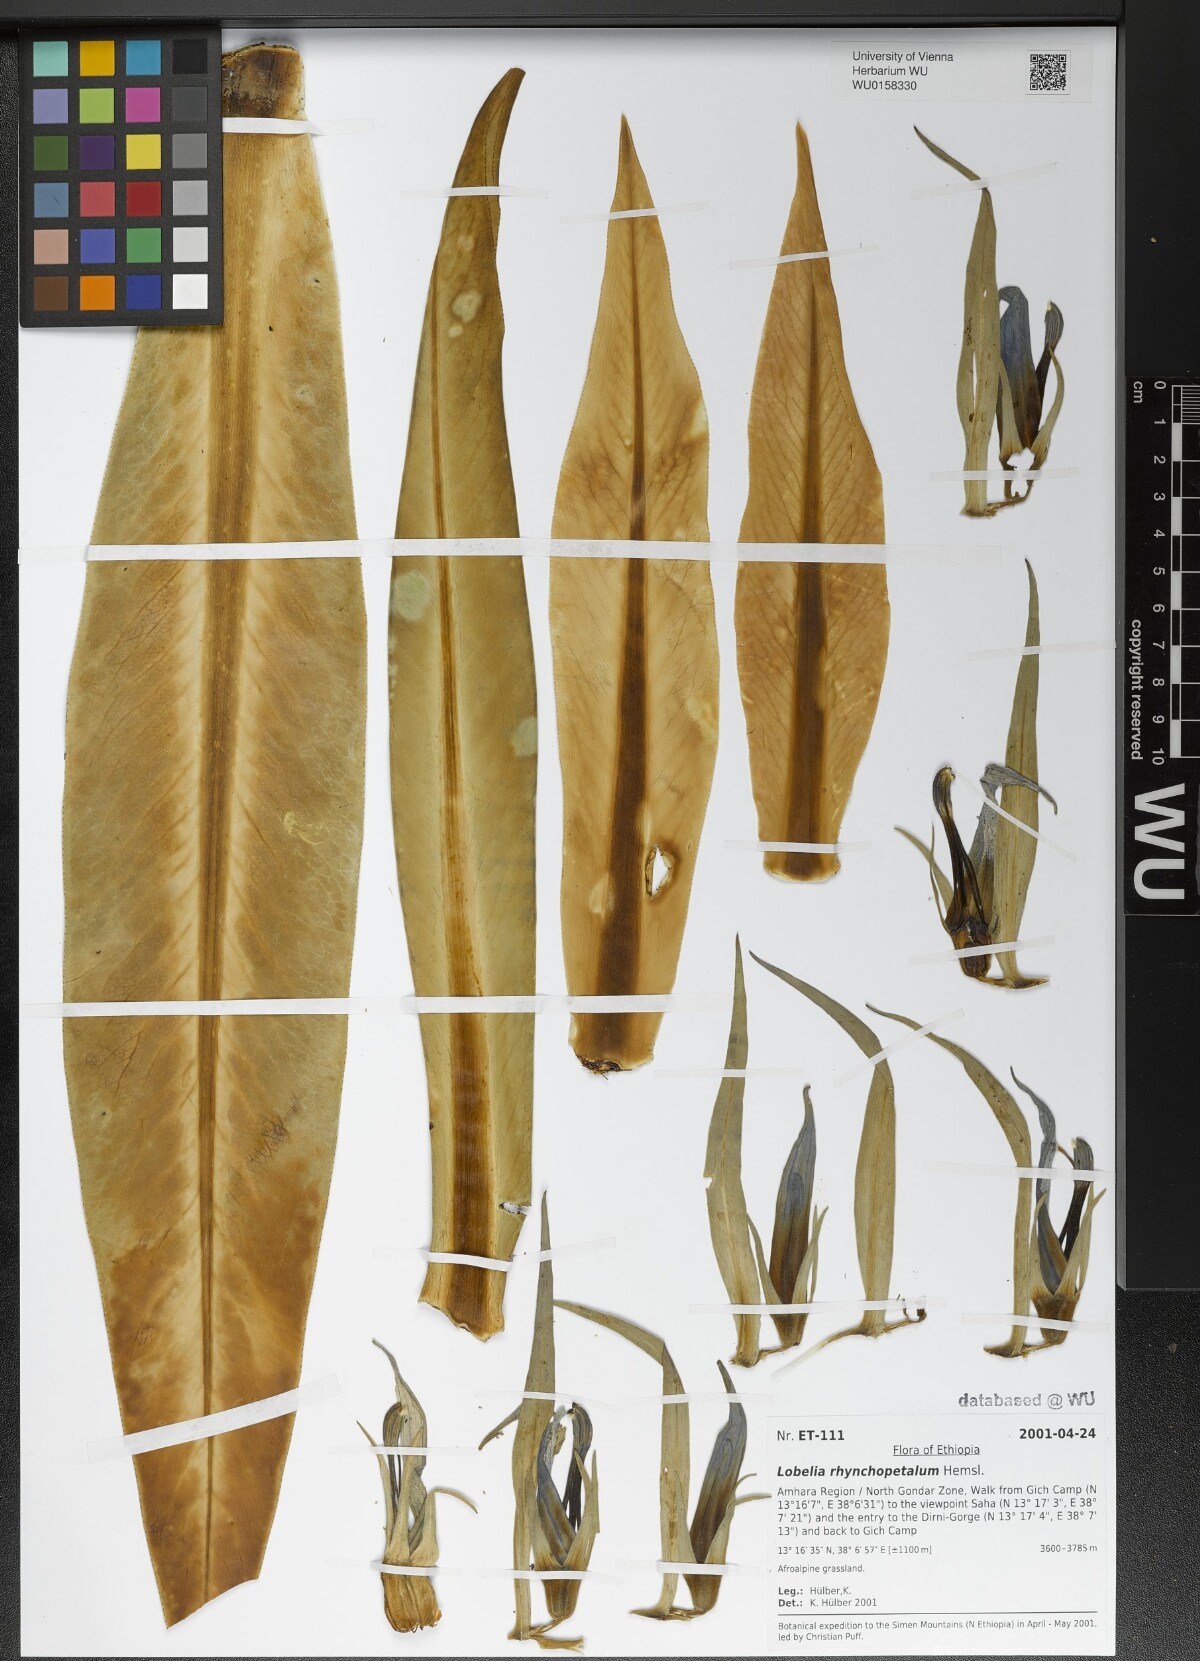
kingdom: Plantae
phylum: Tracheophyta
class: Magnoliopsida
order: Asterales
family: Campanulaceae
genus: Lobelia
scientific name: Lobelia rhynchopetalum
